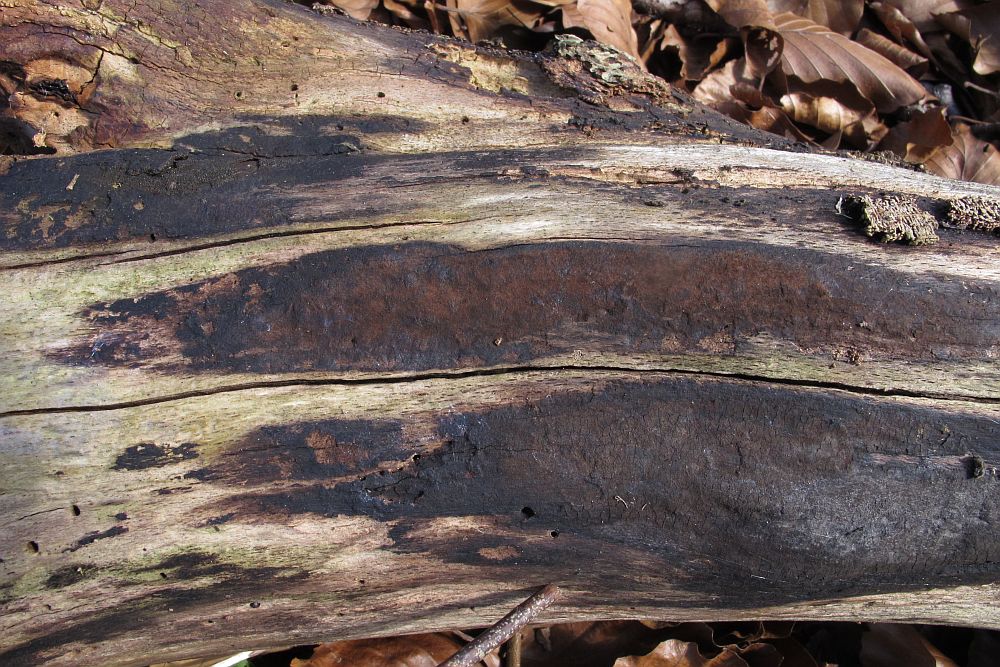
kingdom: Fungi
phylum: Ascomycota
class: Sordariomycetes
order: Xylariales
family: Hypoxylaceae
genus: Hypoxylon
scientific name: Hypoxylon macrocarpum
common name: skorpe-kulbær
